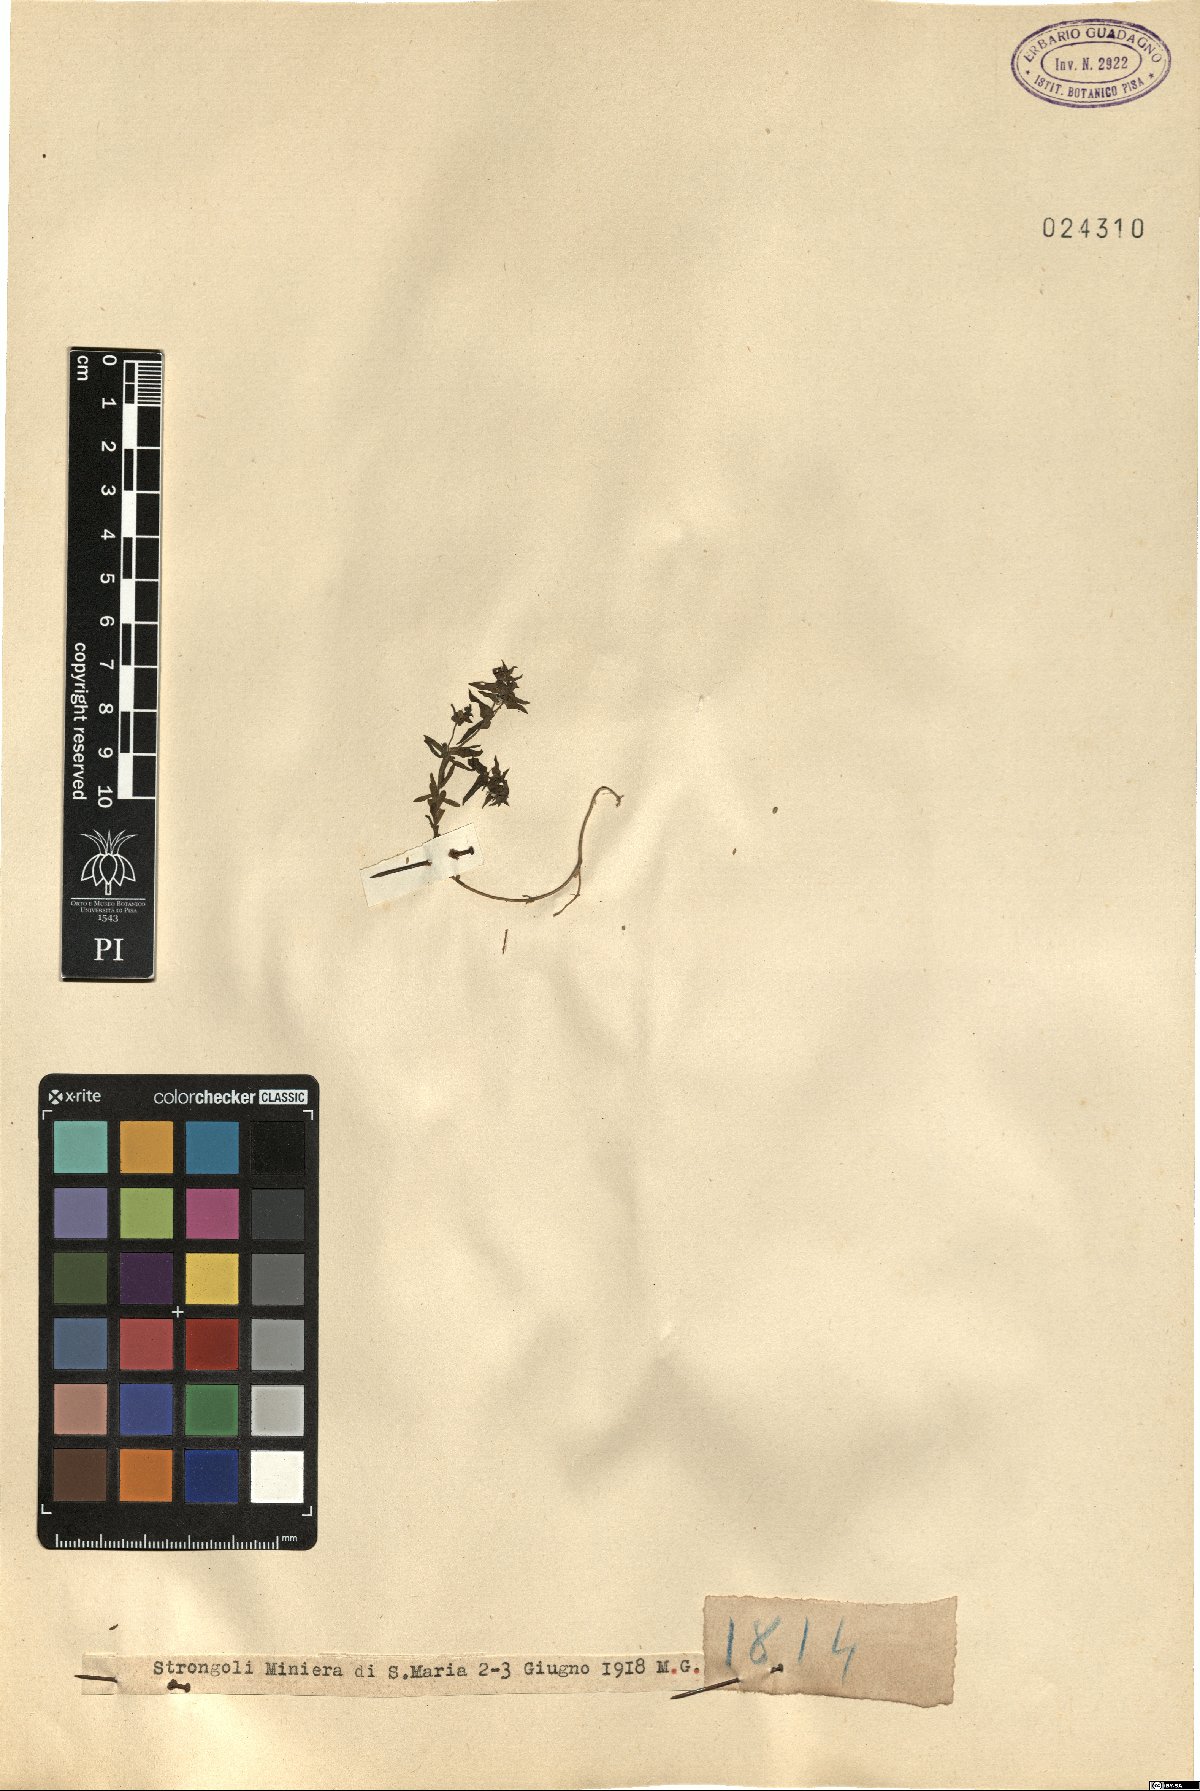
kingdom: Plantae
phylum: Tracheophyta
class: Magnoliopsida
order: Malpighiales
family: Euphorbiaceae
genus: Euphorbia
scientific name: Euphorbia
